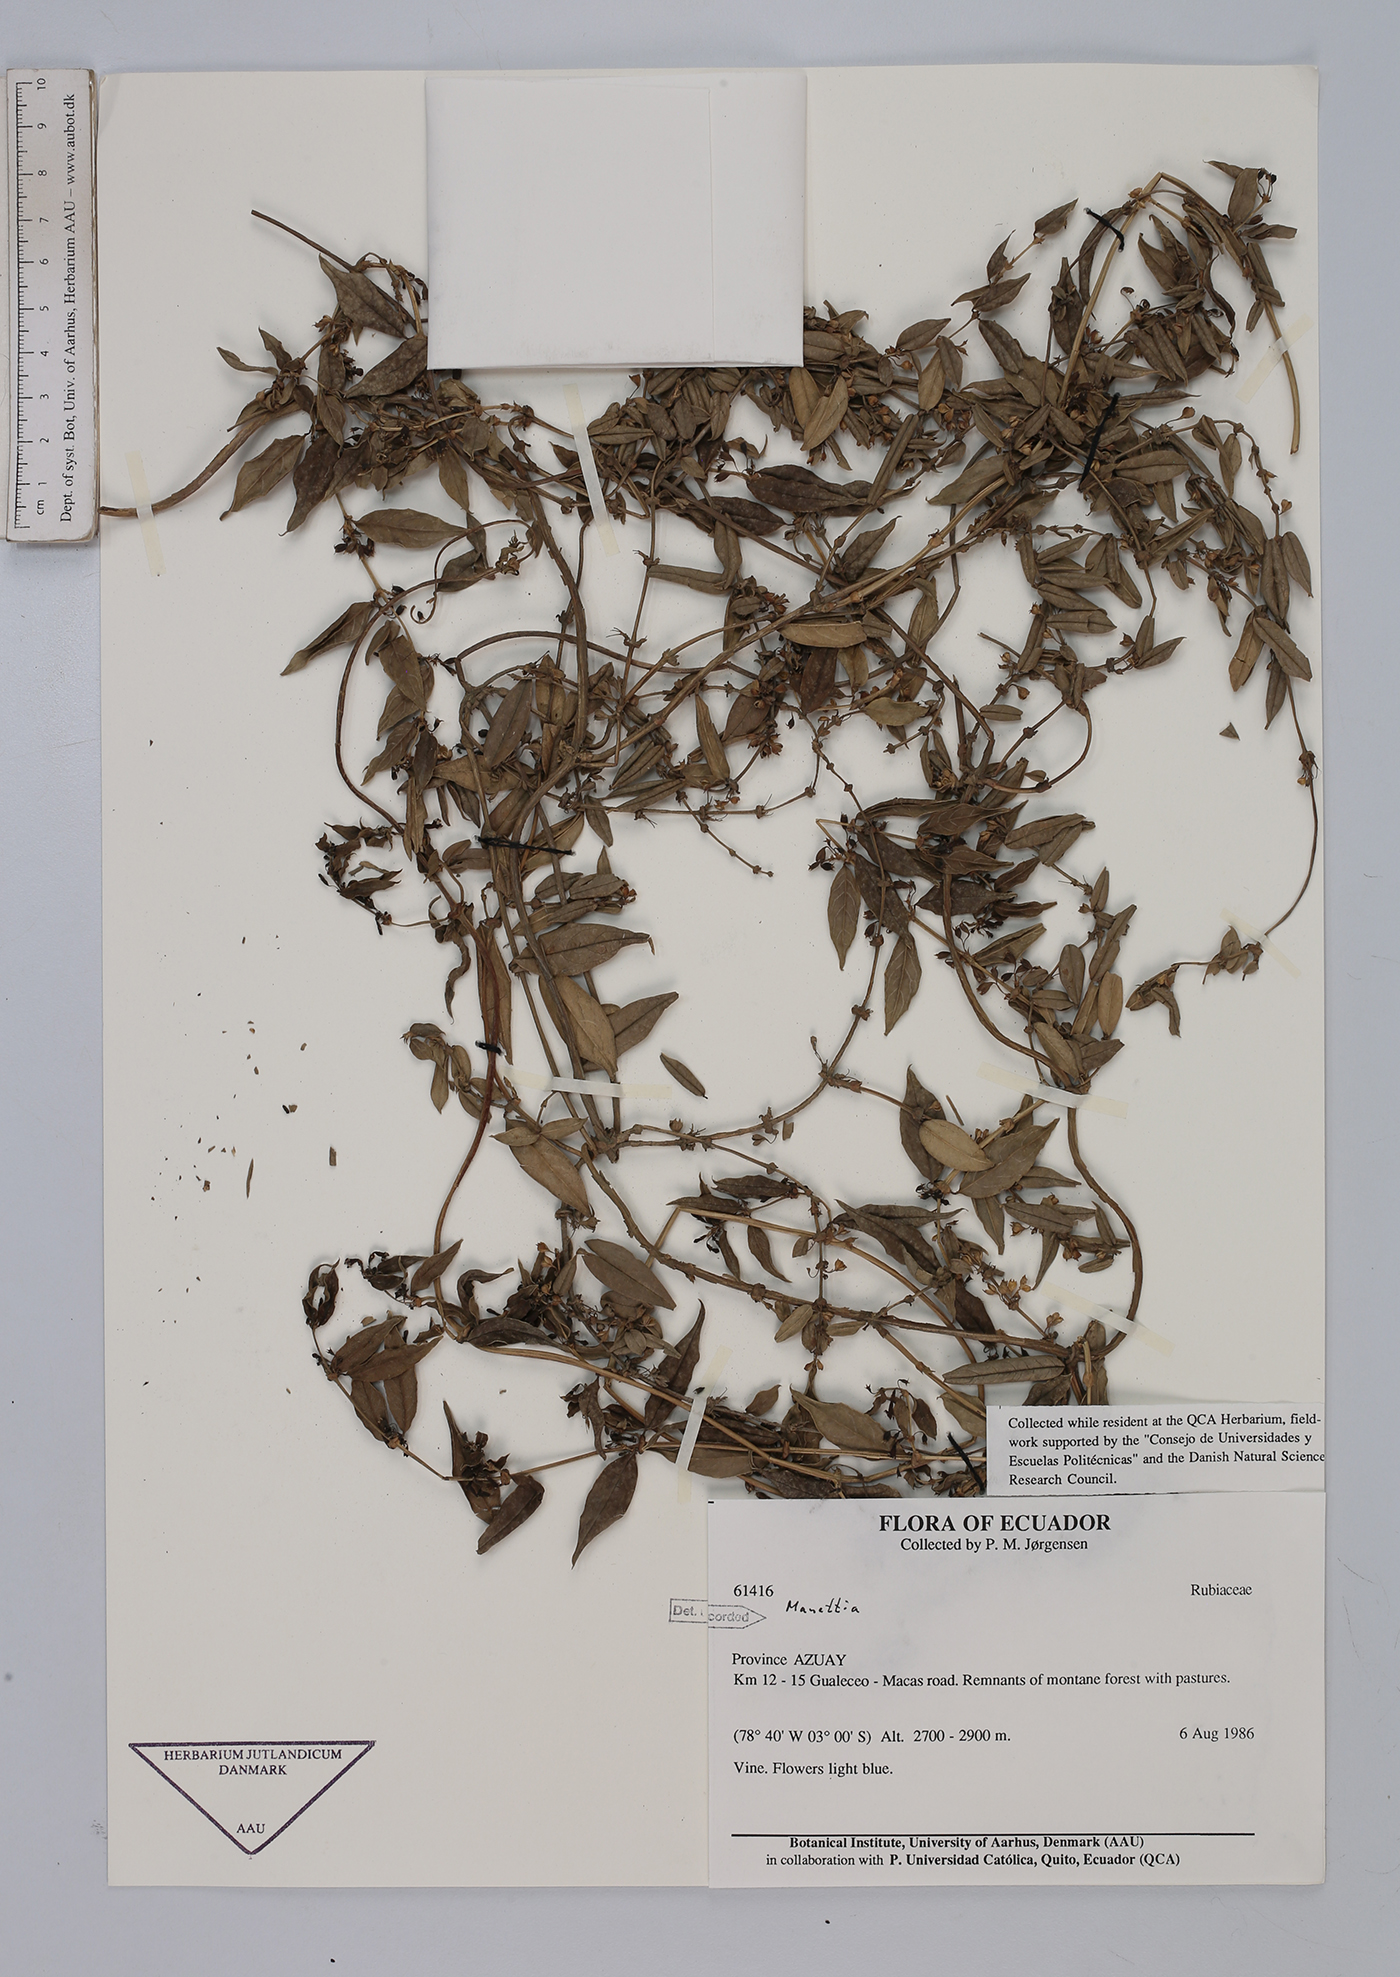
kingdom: Plantae
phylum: Tracheophyta
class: Magnoliopsida
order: Gentianales
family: Rubiaceae
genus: Manettia
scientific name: Manettia
